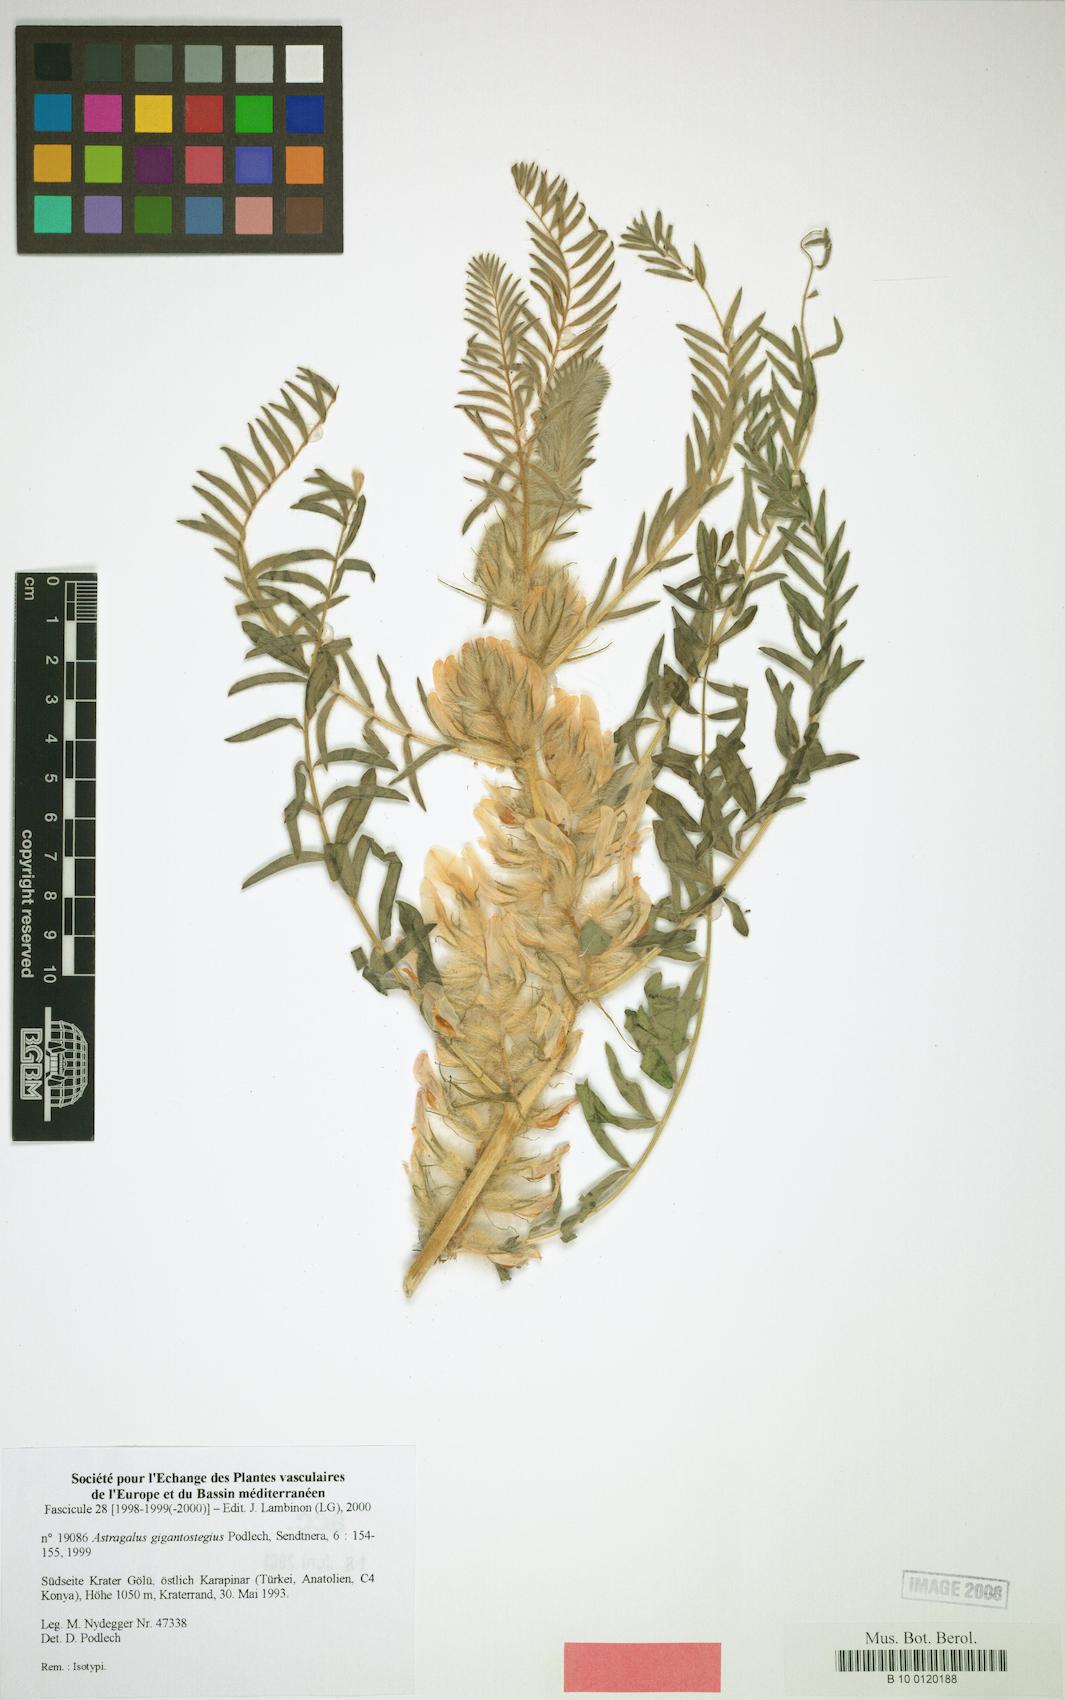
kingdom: Plantae
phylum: Tracheophyta
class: Magnoliopsida
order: Fabales
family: Fabaceae
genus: Astragalus
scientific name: Astragalus gigantostegius
